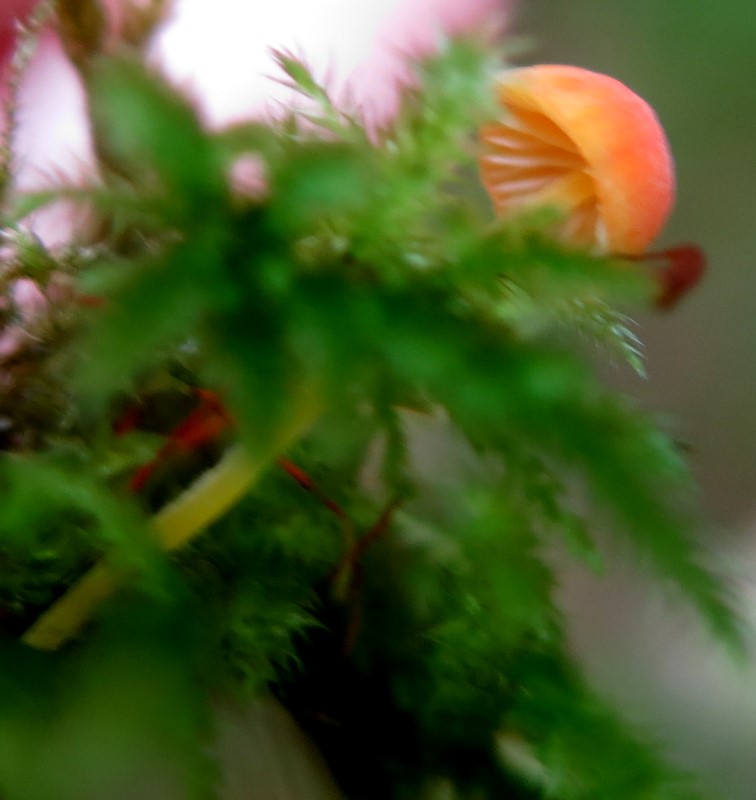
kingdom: Fungi
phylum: Basidiomycota
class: Agaricomycetes
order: Agaricales
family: Mycenaceae
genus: Mycena
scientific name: Mycena acicula
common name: orange huesvamp
